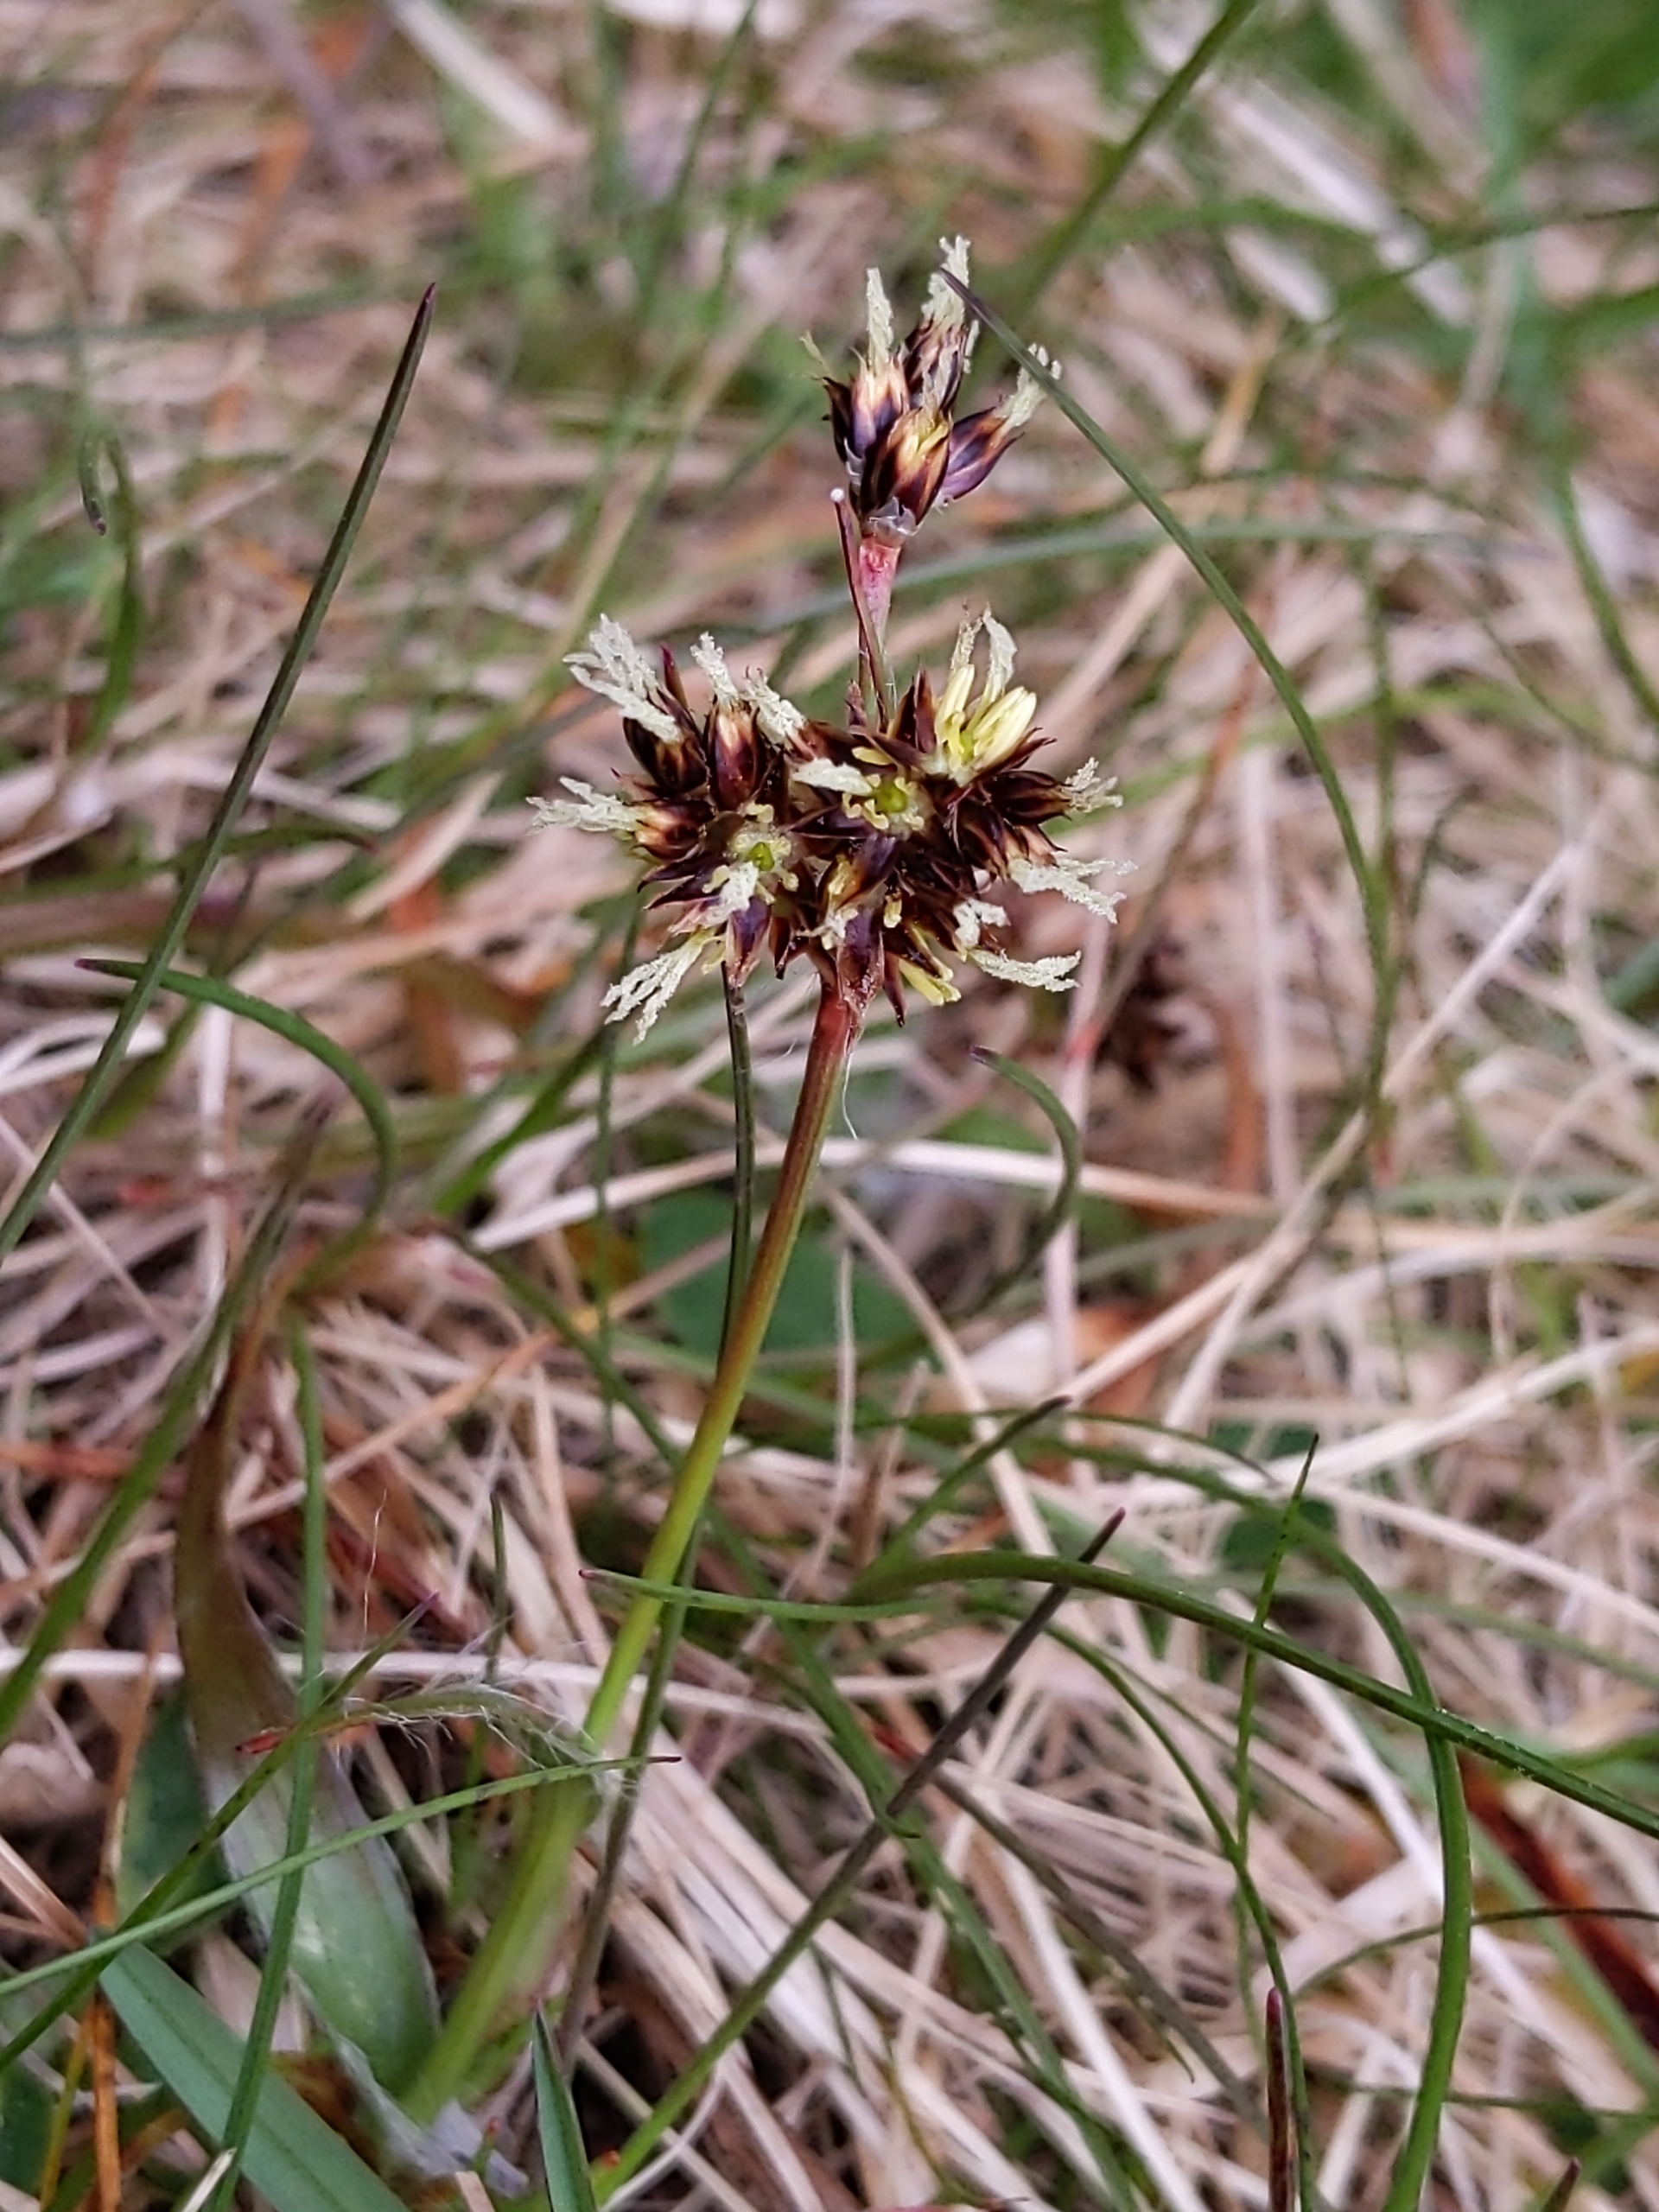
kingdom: Plantae
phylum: Tracheophyta
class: Liliopsida
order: Poales
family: Juncaceae
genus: Luzula
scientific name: Luzula campestris
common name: Mark-frytle
